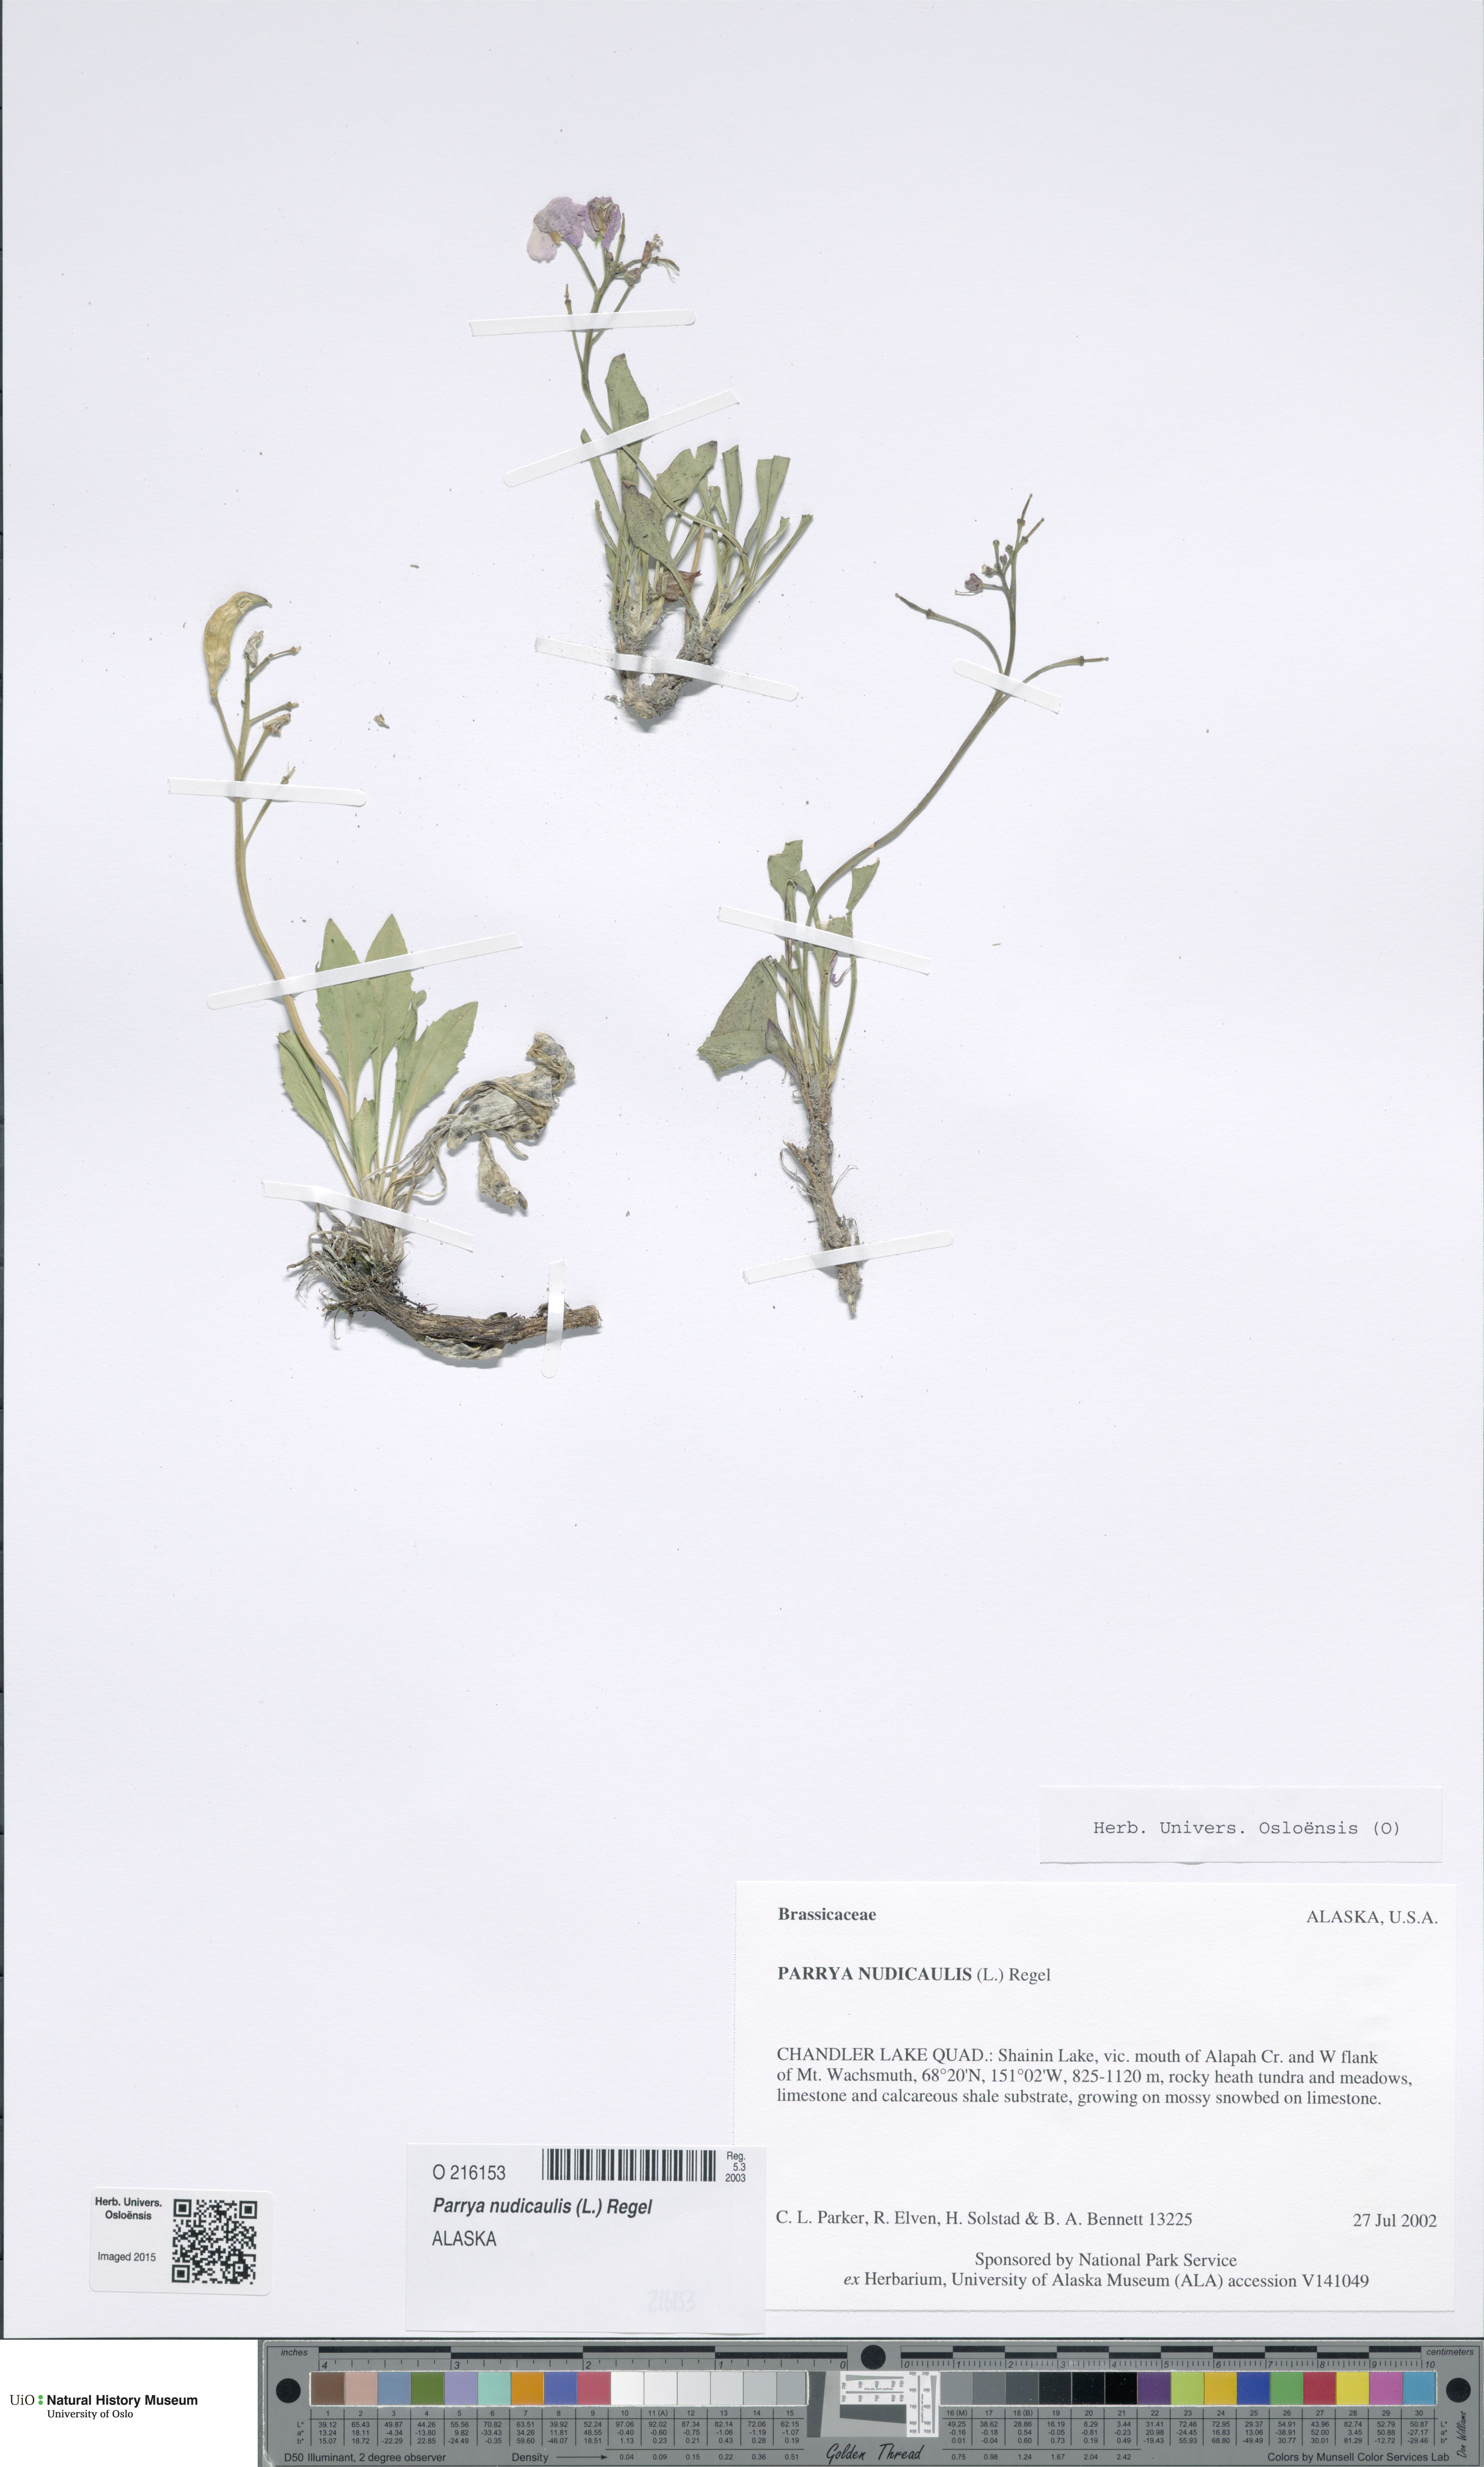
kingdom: Plantae
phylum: Tracheophyta
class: Magnoliopsida
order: Brassicales
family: Brassicaceae
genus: Parrya
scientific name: Parrya nudicaulis
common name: Naked-stemmed false wallflower
